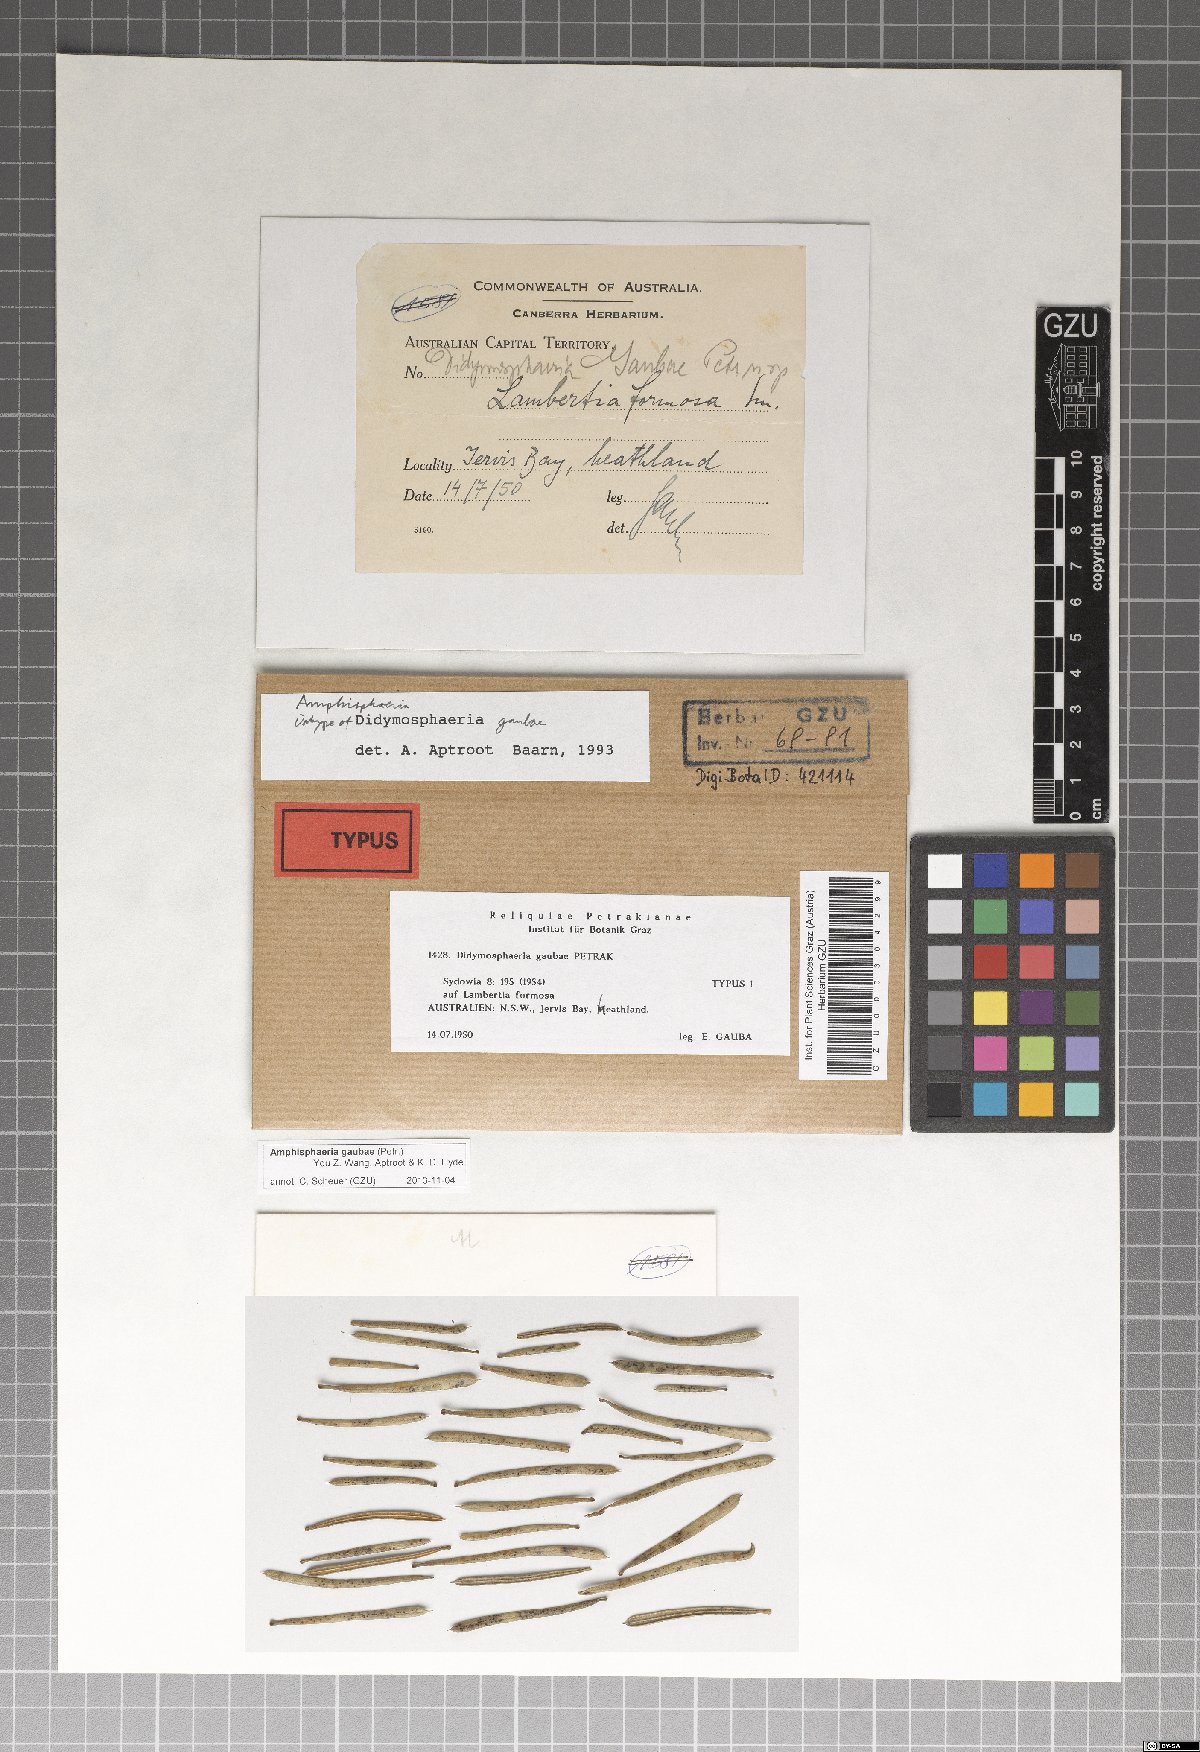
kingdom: Fungi
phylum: Ascomycota
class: Sordariomycetes
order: Amphisphaeriales
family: Amphisphaeriaceae
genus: Amphisphaeria
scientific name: Amphisphaeria gaubae
